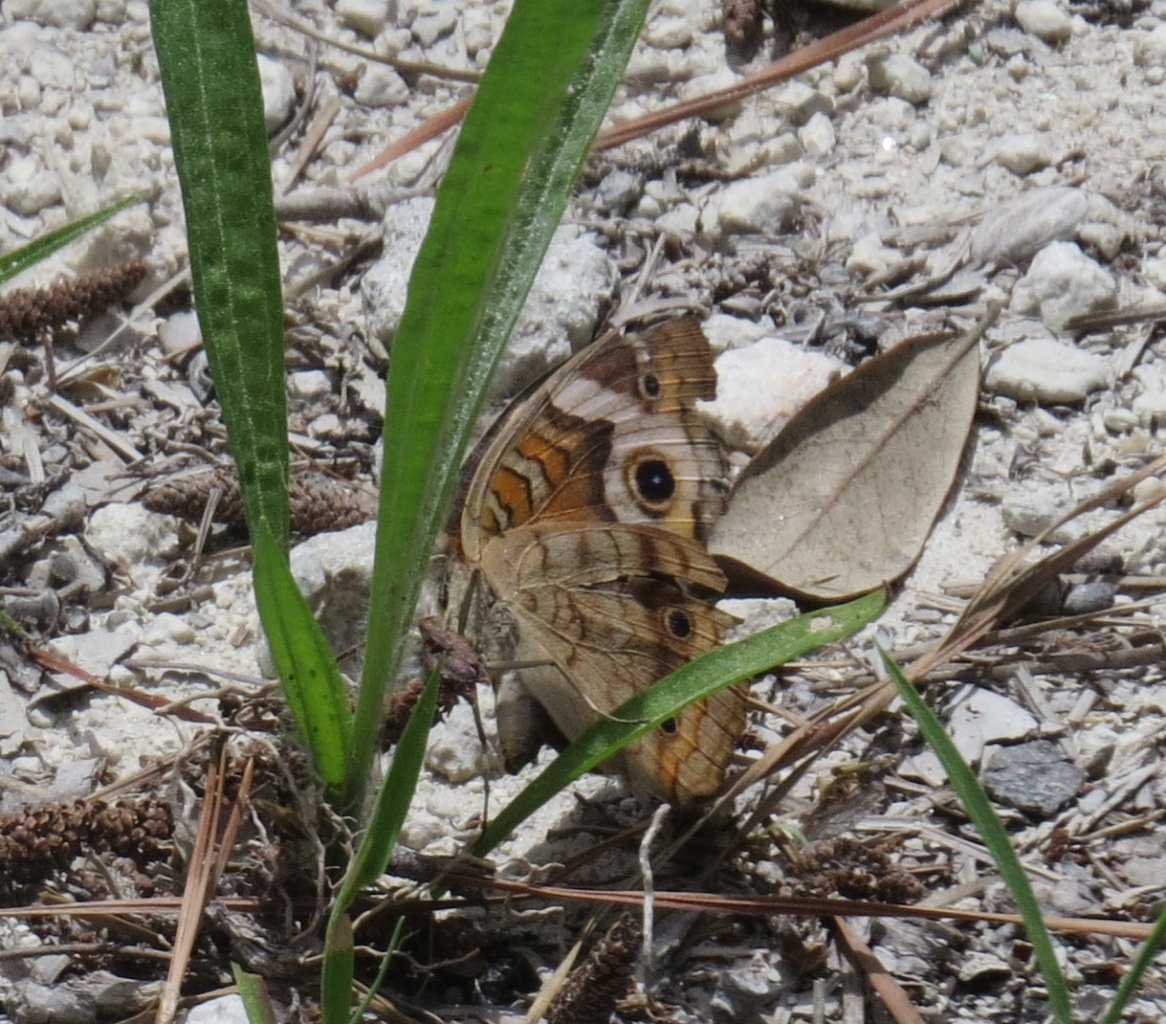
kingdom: Animalia
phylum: Arthropoda
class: Insecta
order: Lepidoptera
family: Nymphalidae
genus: Junonia
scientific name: Junonia coenia
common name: Common Buckeye
